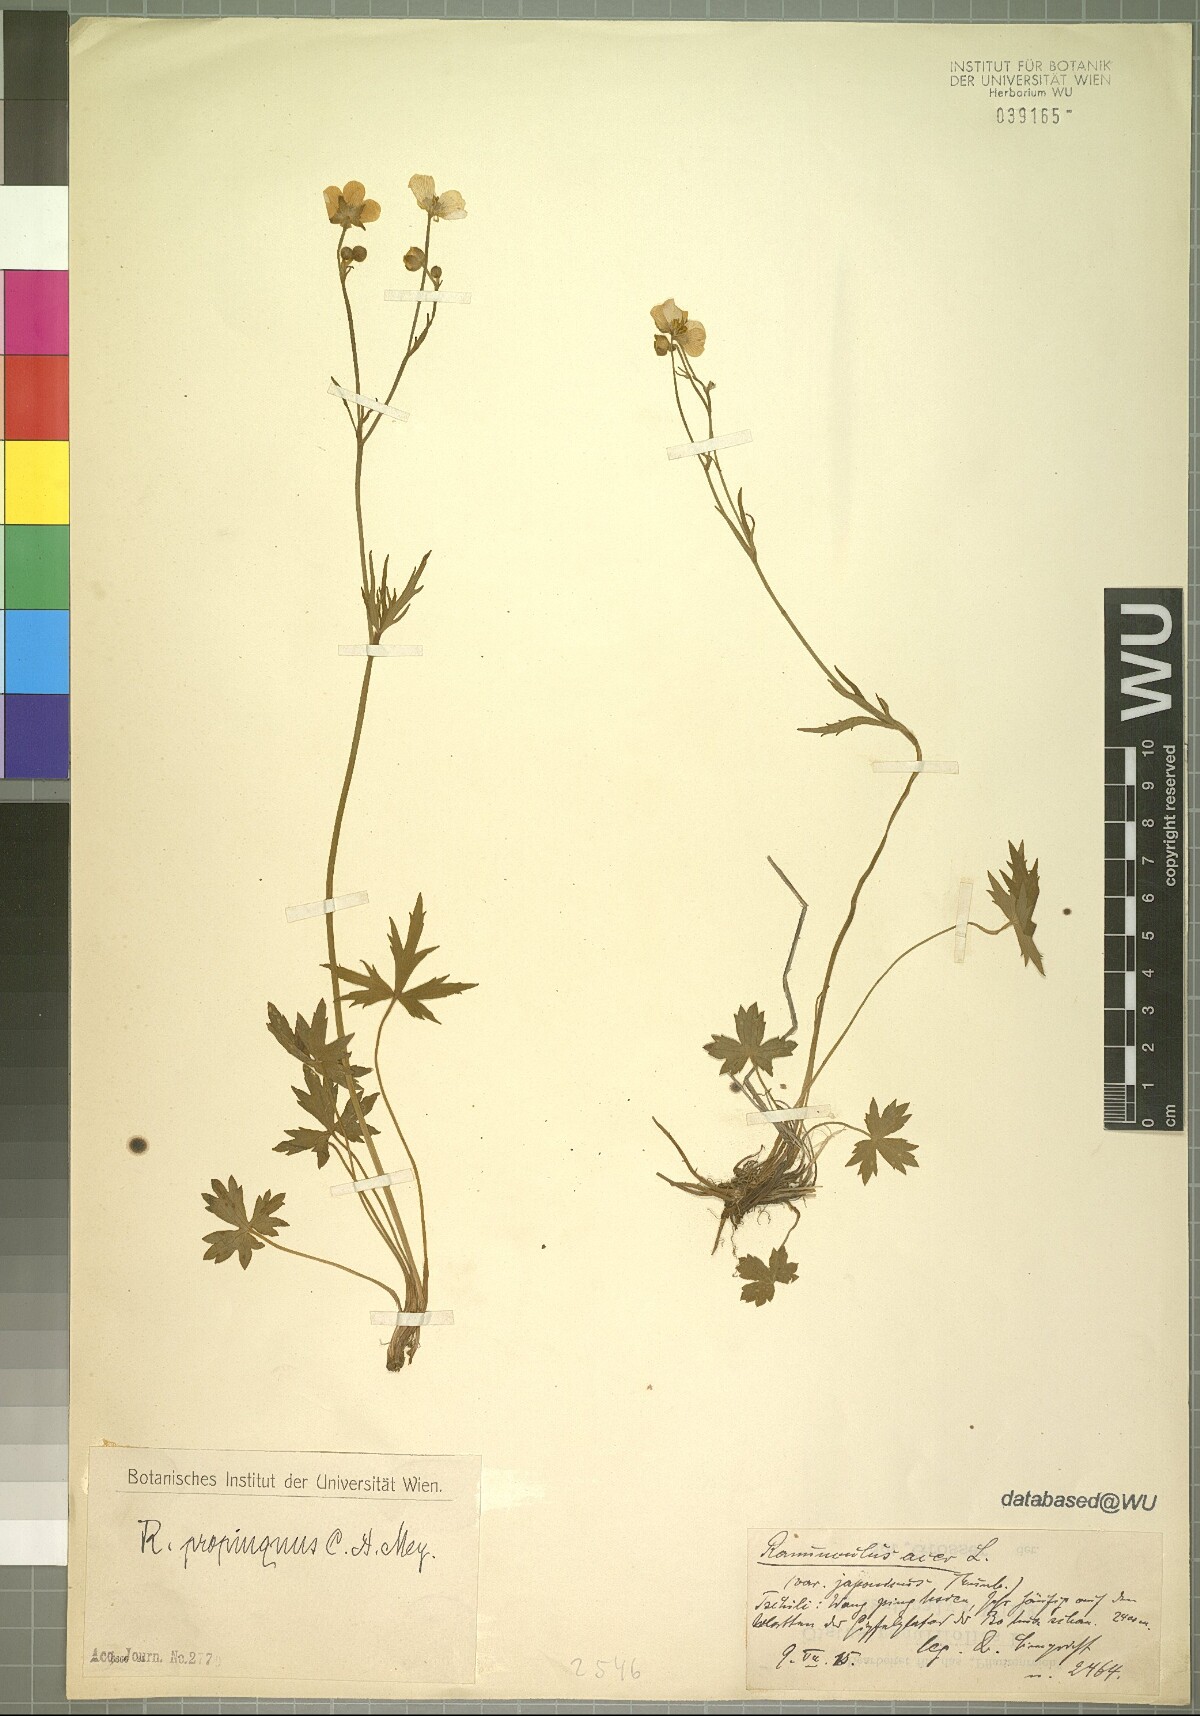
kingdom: Plantae
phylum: Tracheophyta
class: Magnoliopsida
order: Ranunculales
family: Ranunculaceae
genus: Ranunculus
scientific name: Ranunculus propinquus
